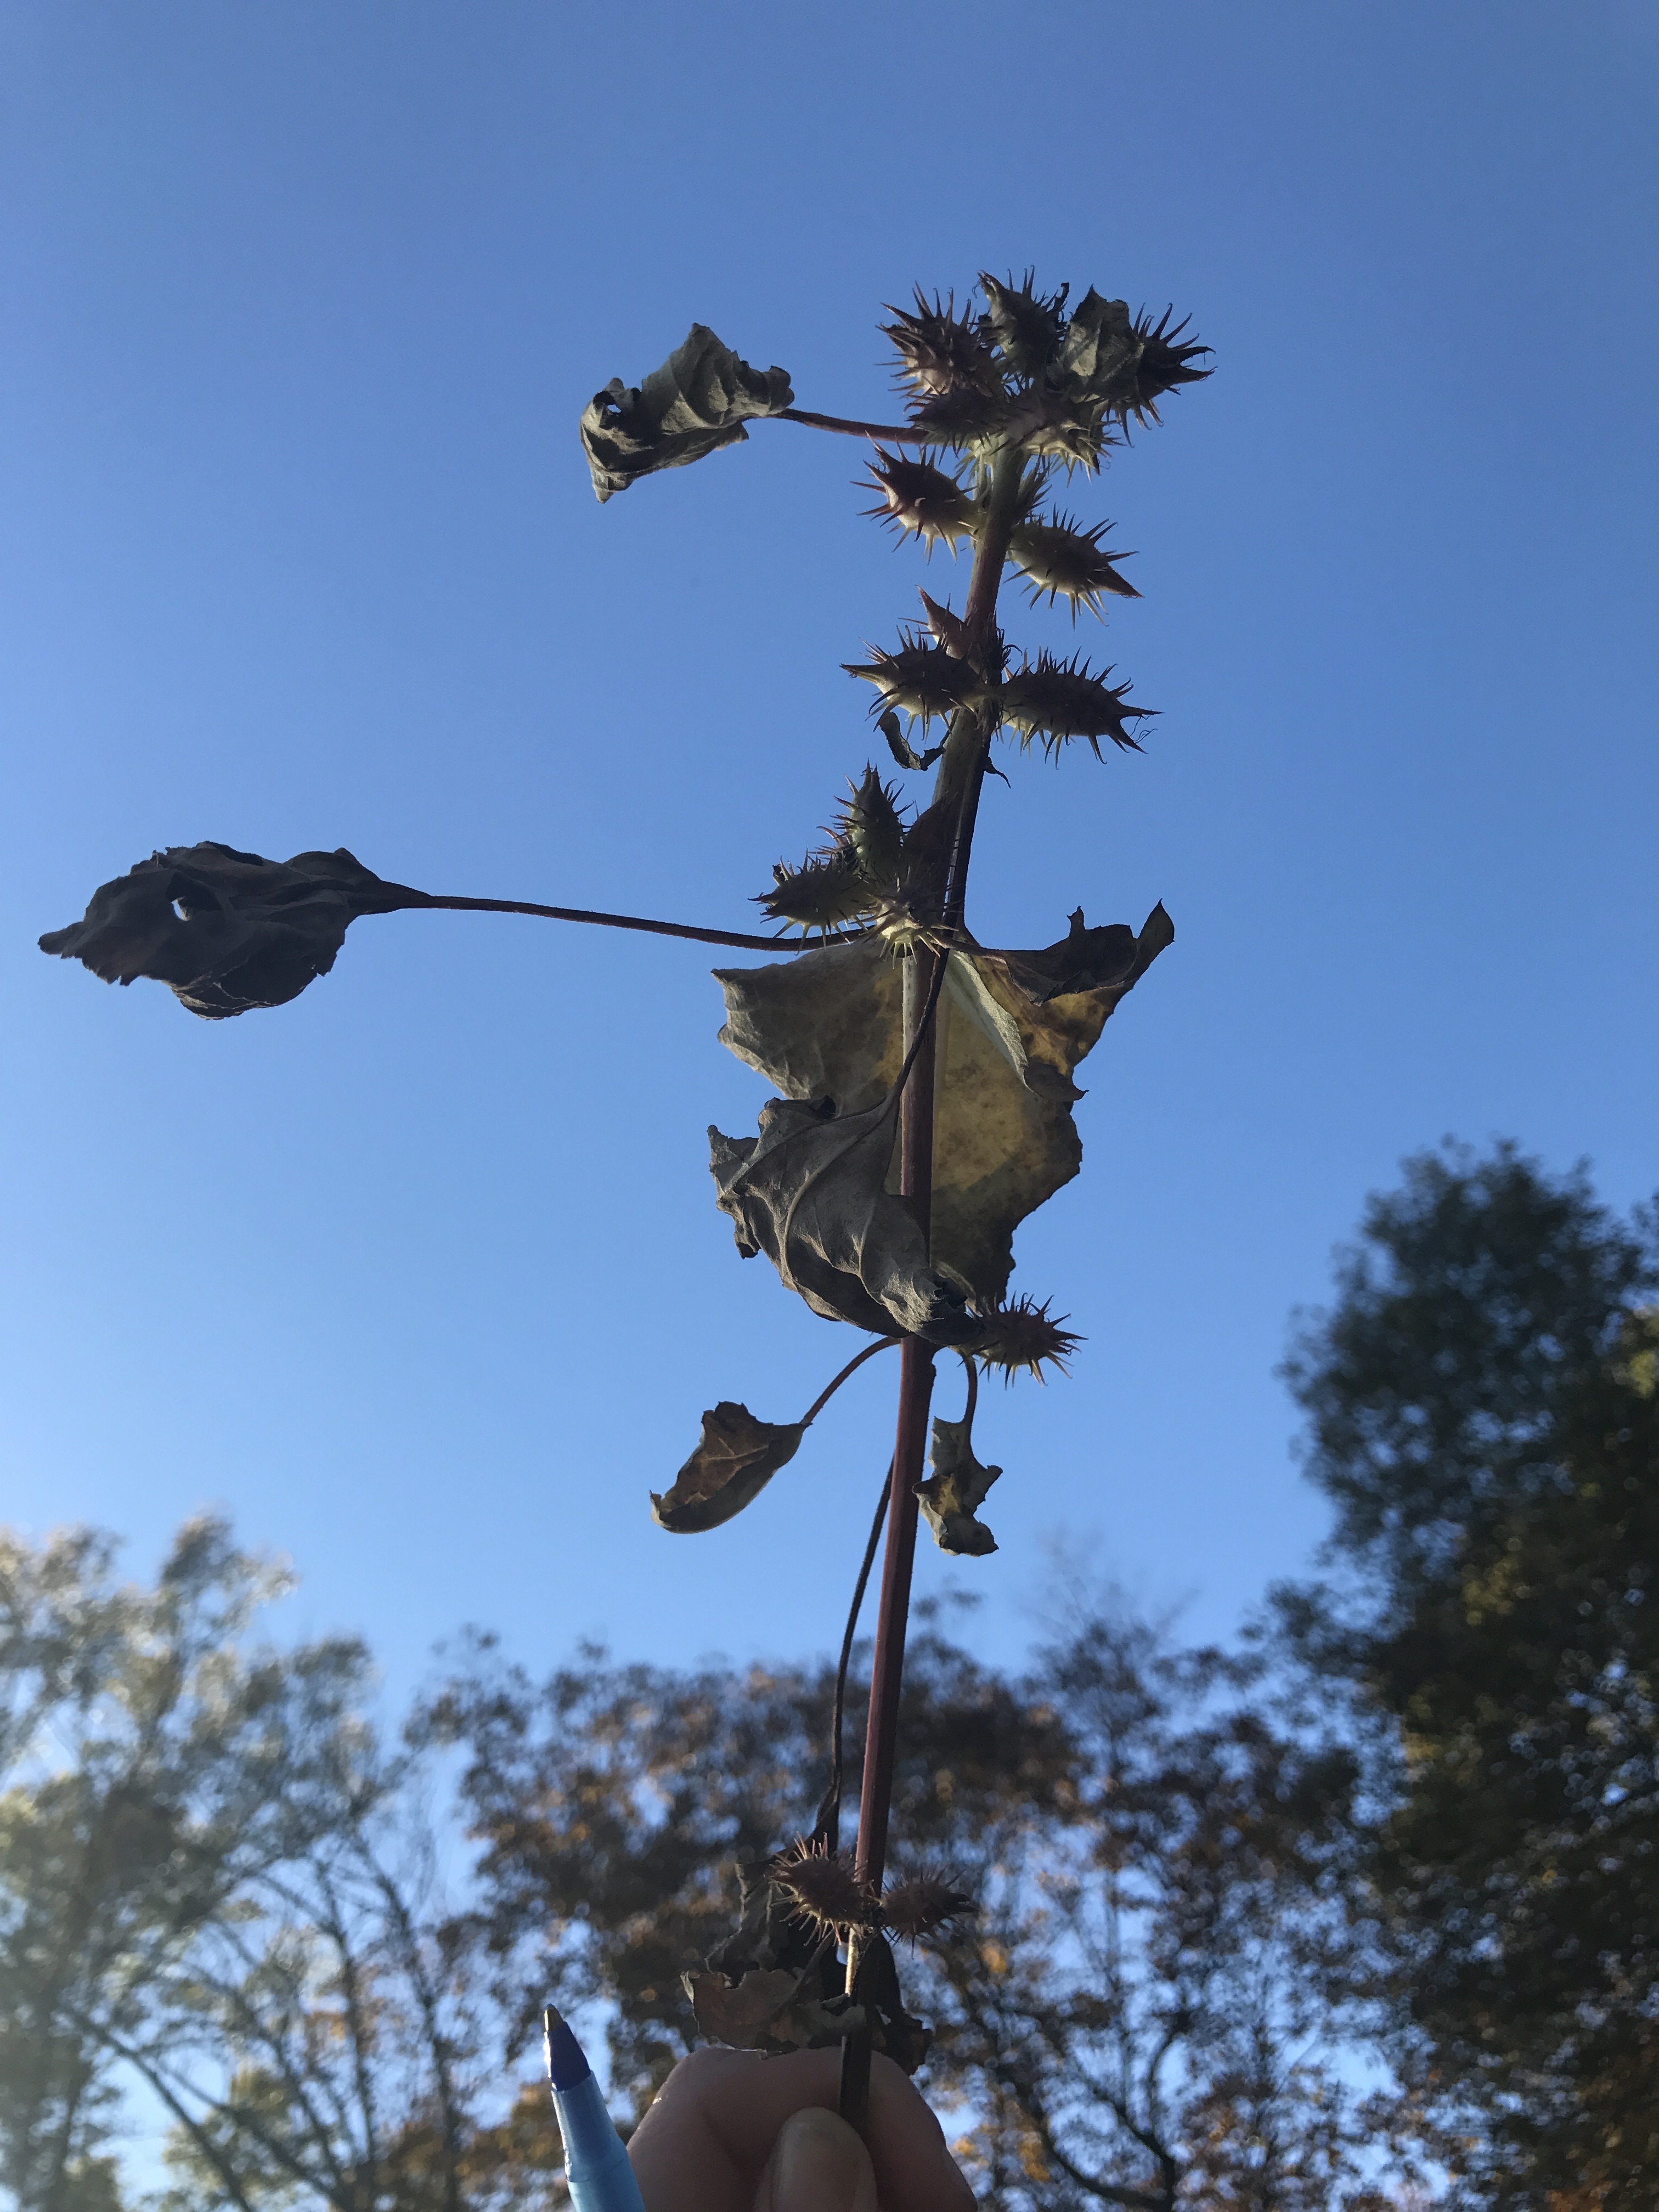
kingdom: Plantae
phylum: Tracheophyta
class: Magnoliopsida
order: Asterales
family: Asteraceae
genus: Xanthium
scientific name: Xanthium strumarium
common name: Rough cocklebur
